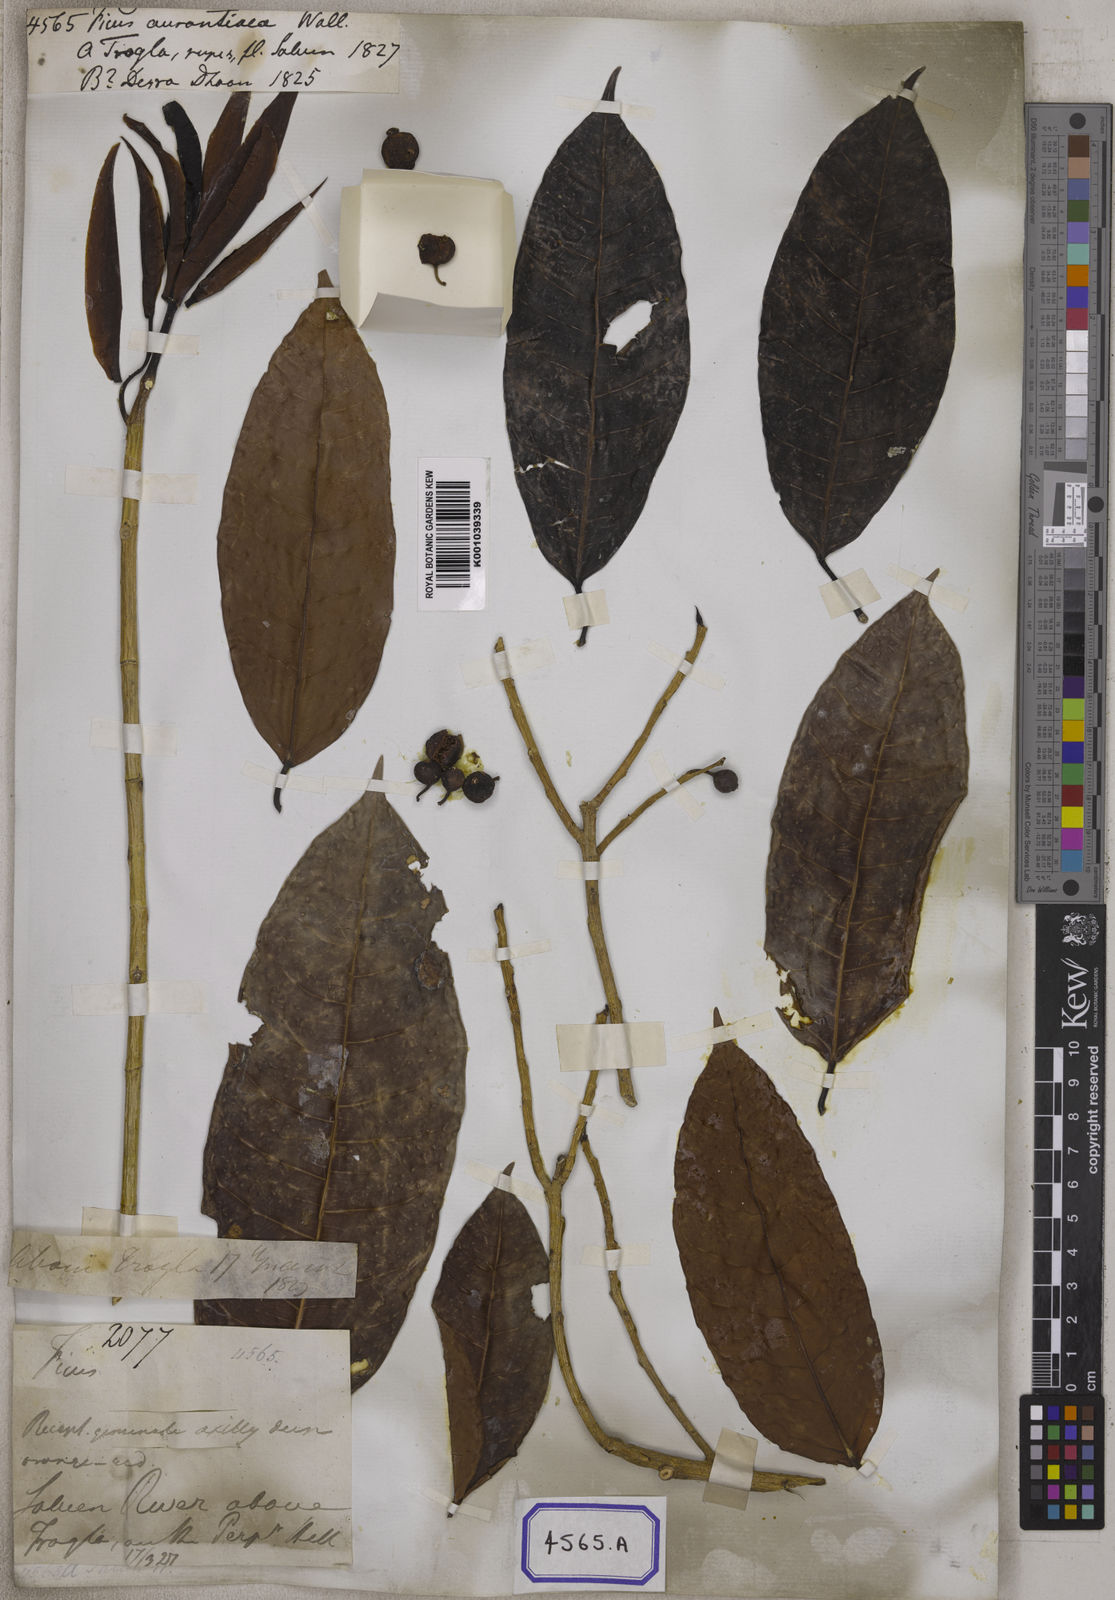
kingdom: Plantae
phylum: Tracheophyta
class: Magnoliopsida
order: Rosales
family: Moraceae
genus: Ficus
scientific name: Ficus
